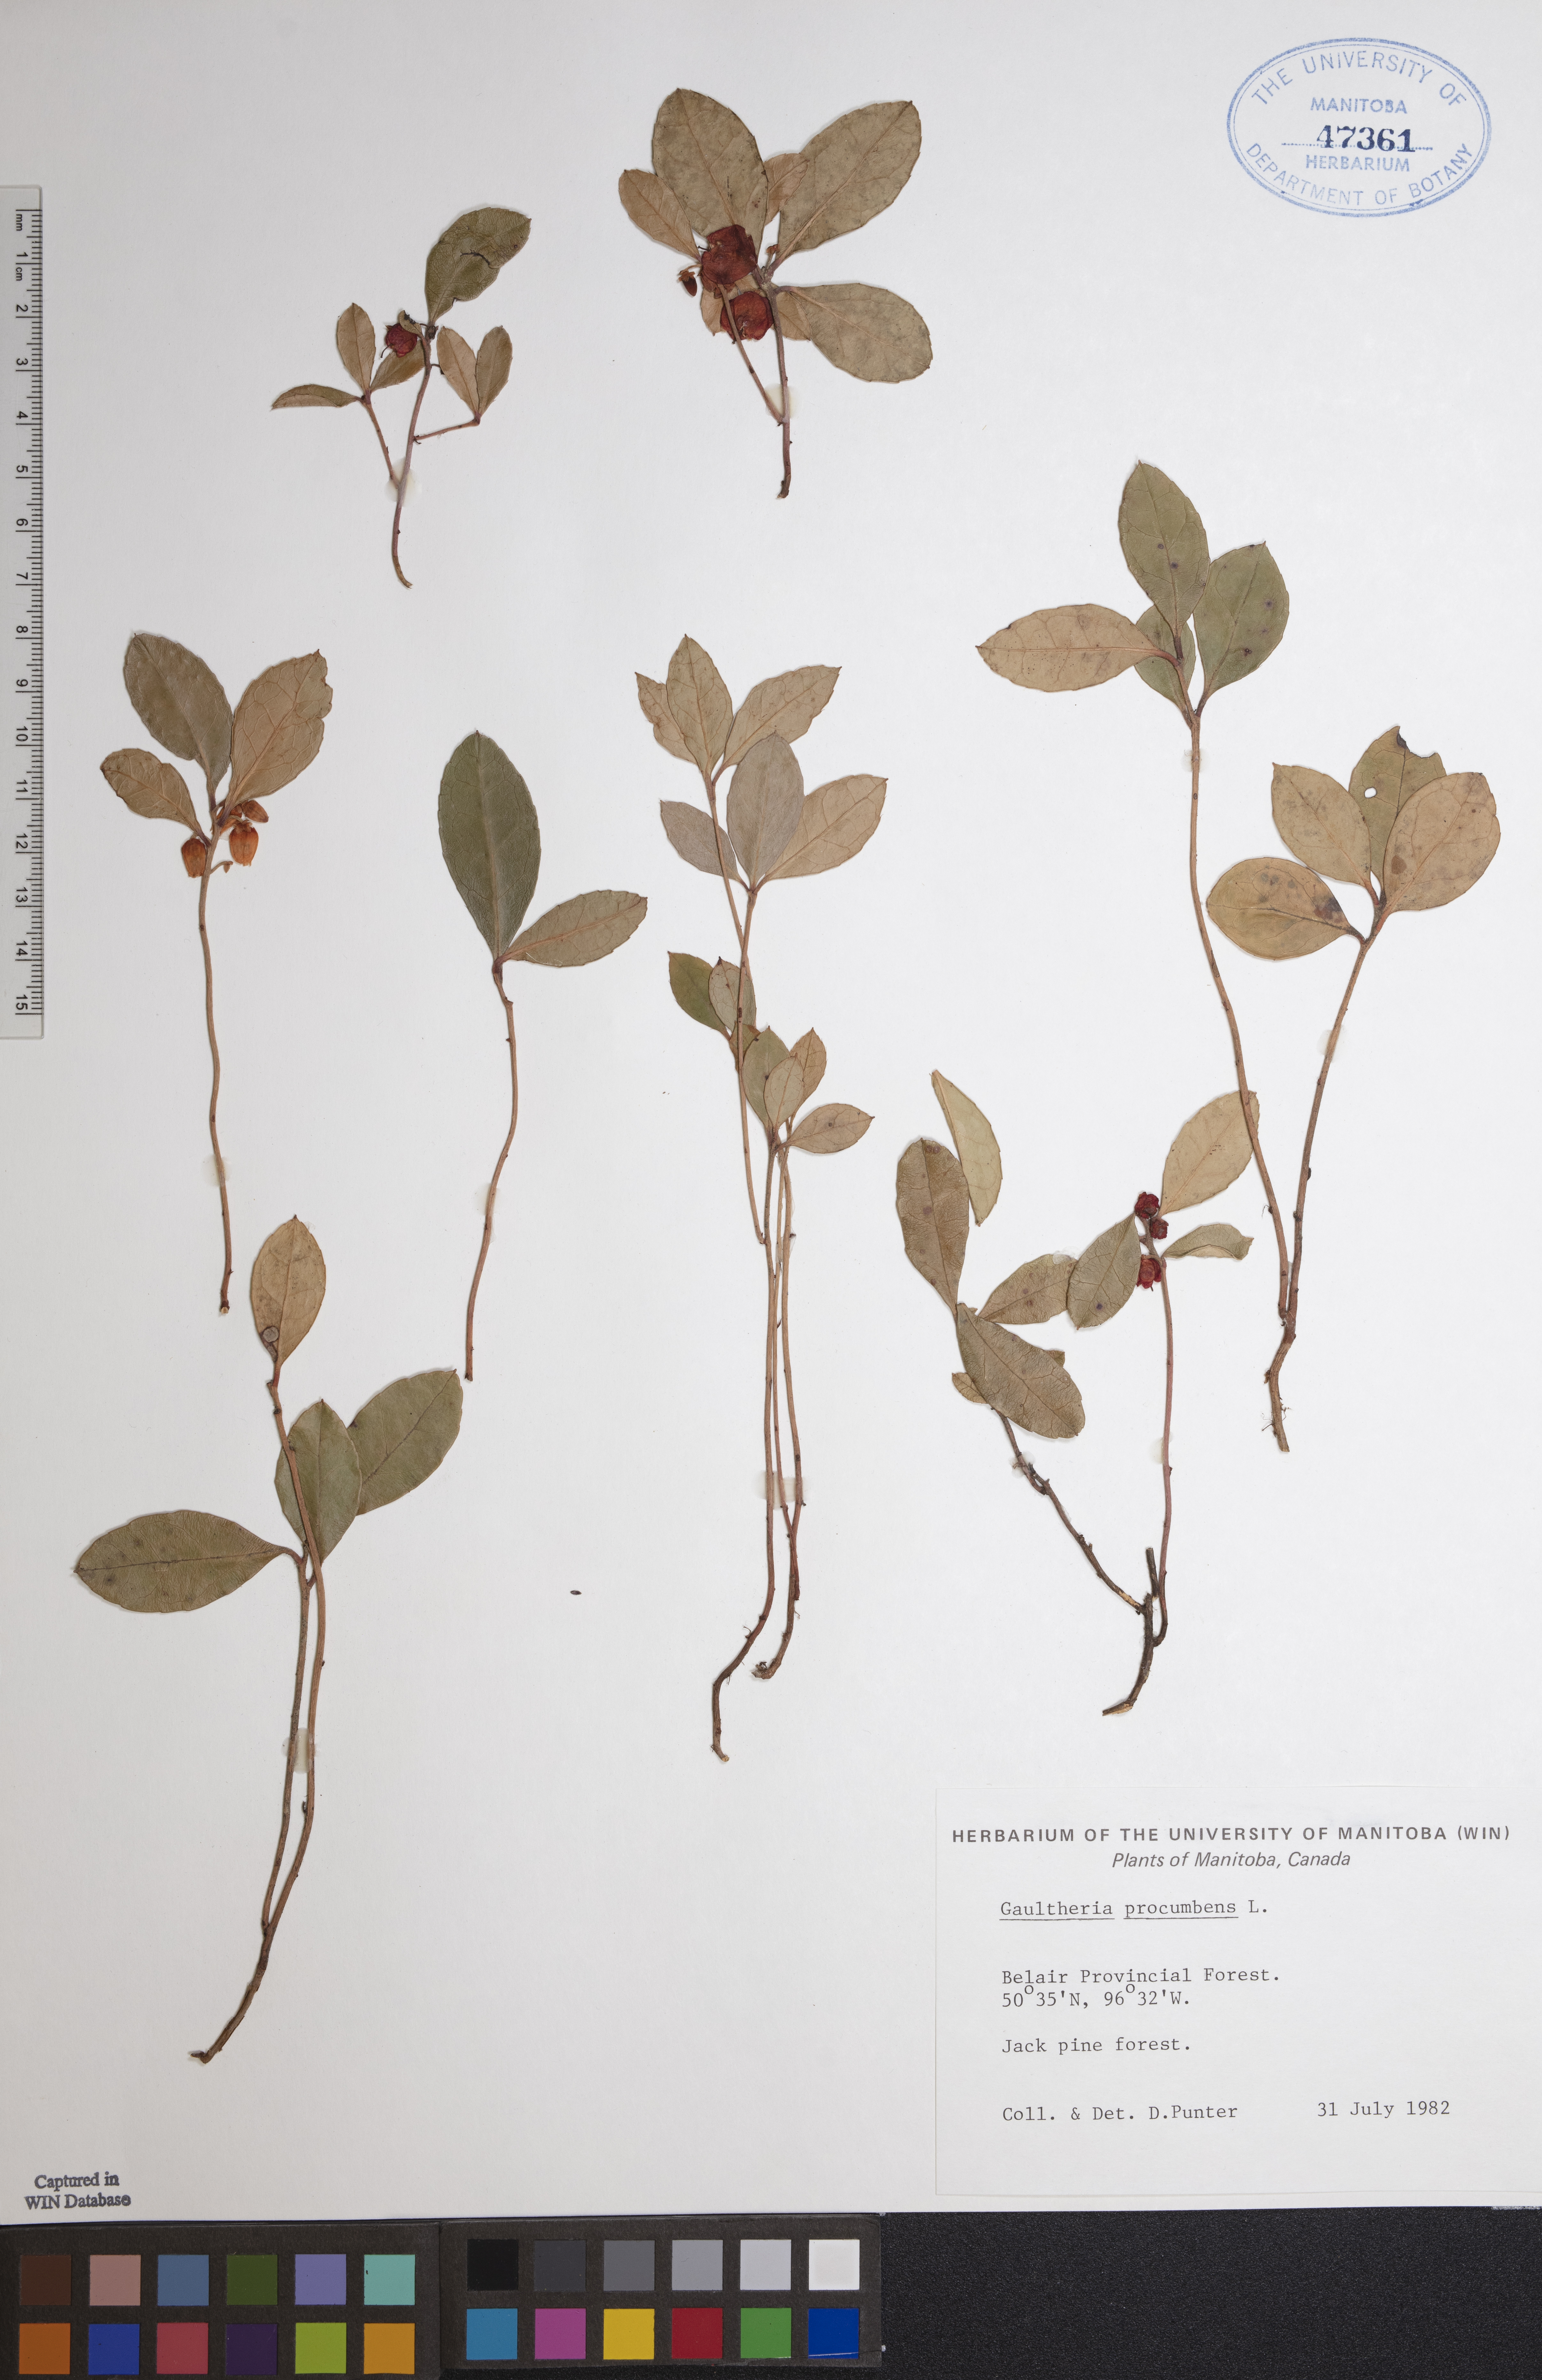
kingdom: Plantae
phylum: Tracheophyta
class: Magnoliopsida
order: Ericales
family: Ericaceae
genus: Gaultheria
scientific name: Gaultheria procumbens
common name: Checkerberry
